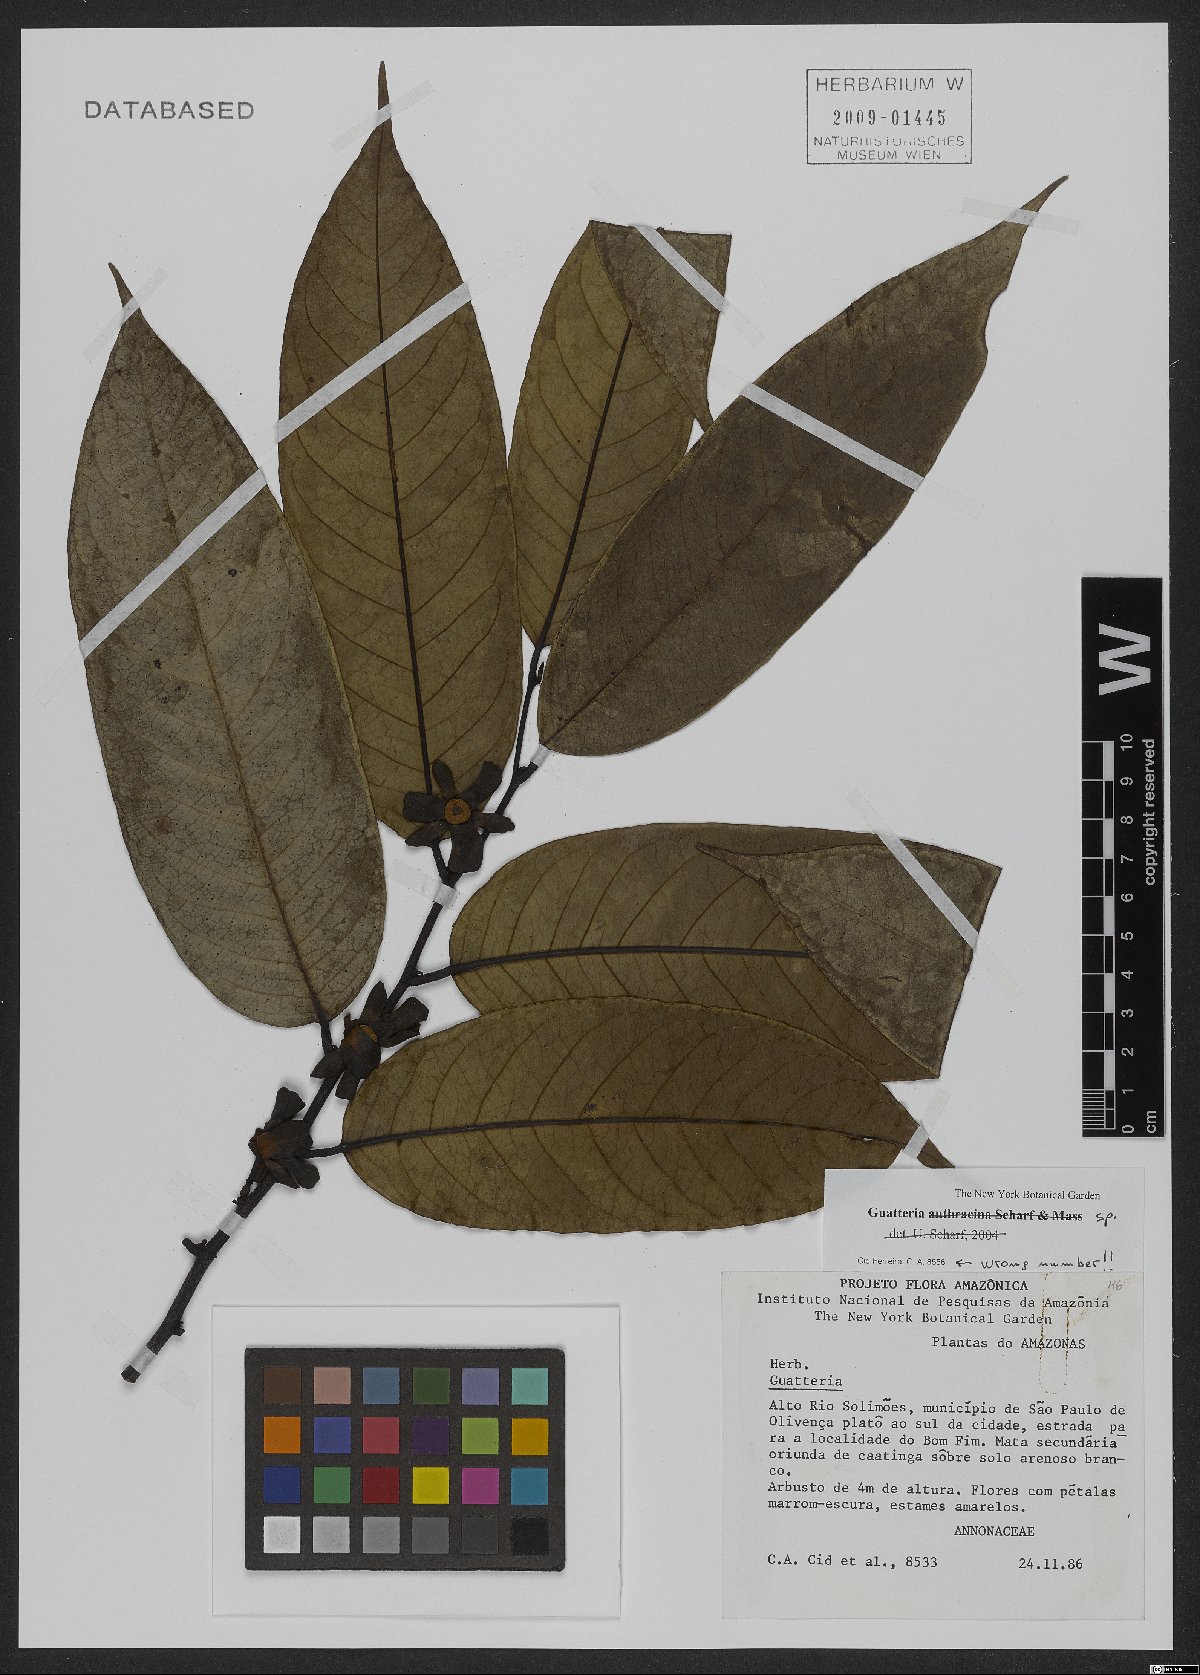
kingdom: Plantae
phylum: Tracheophyta
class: Magnoliopsida
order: Magnoliales
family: Annonaceae
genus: Guatteria
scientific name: Guatteria
